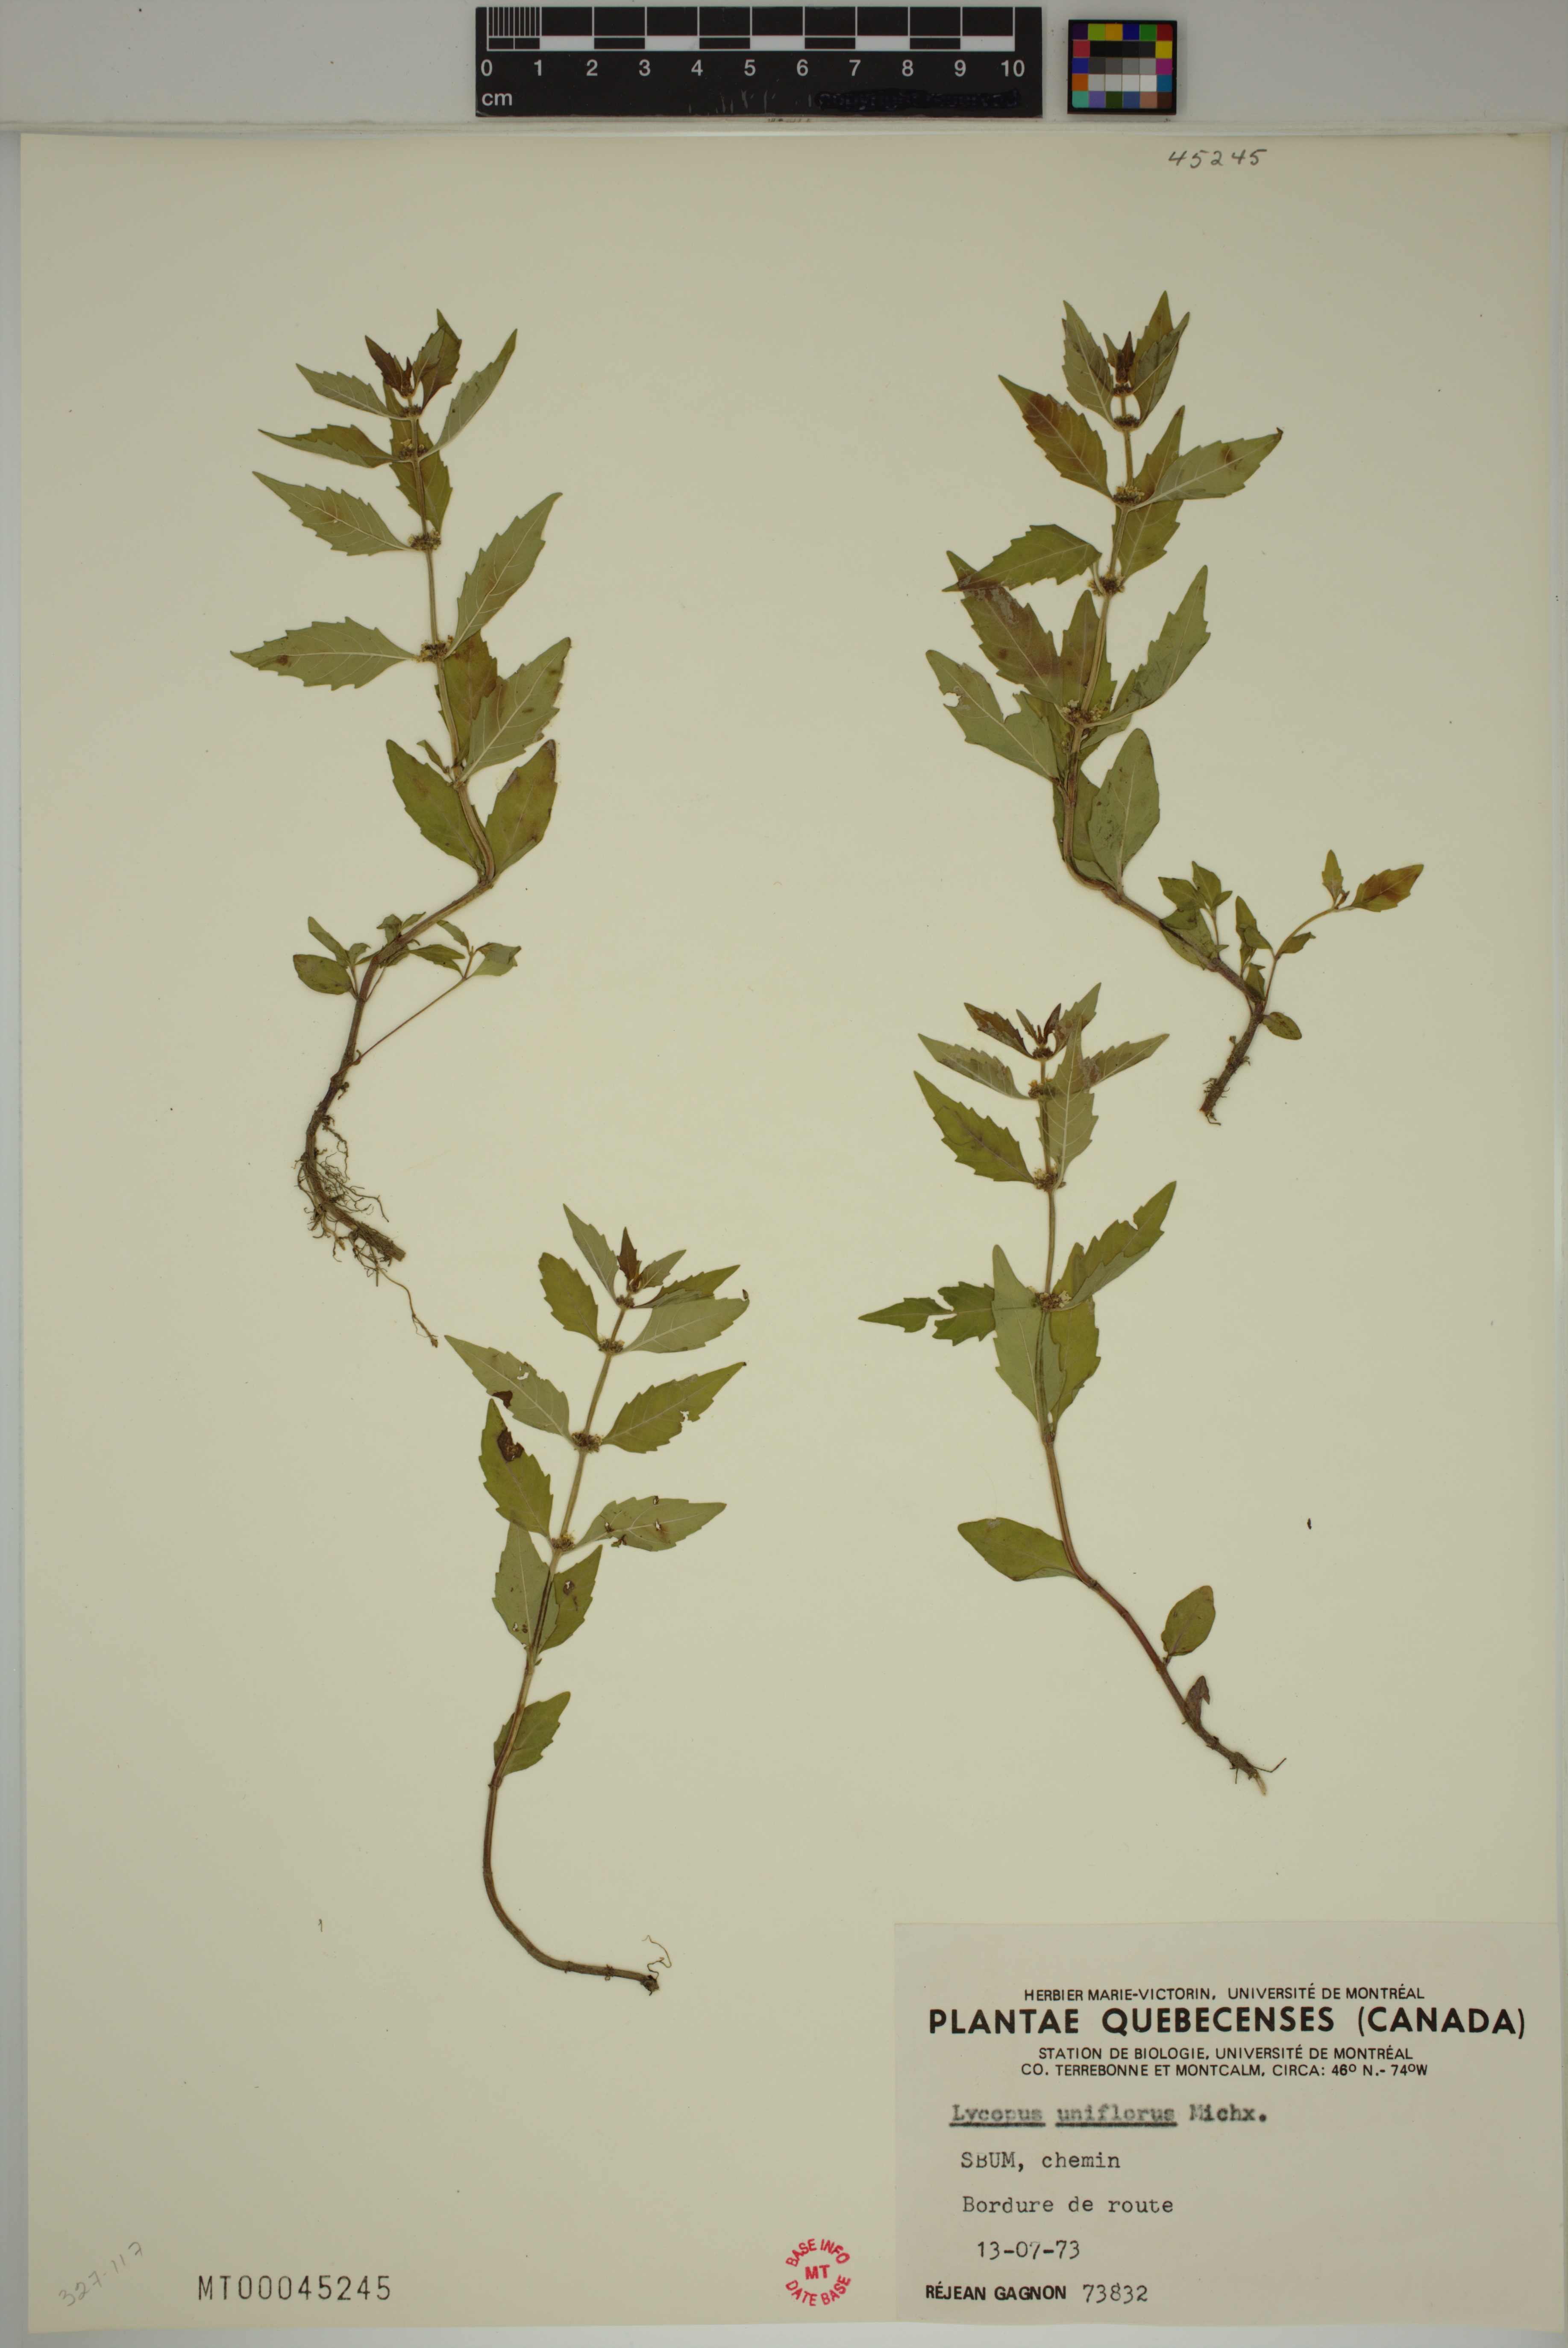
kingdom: Plantae
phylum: Tracheophyta
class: Magnoliopsida
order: Lamiales
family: Lamiaceae
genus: Lycopus
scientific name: Lycopus uniflorus
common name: Northern bugleweed
